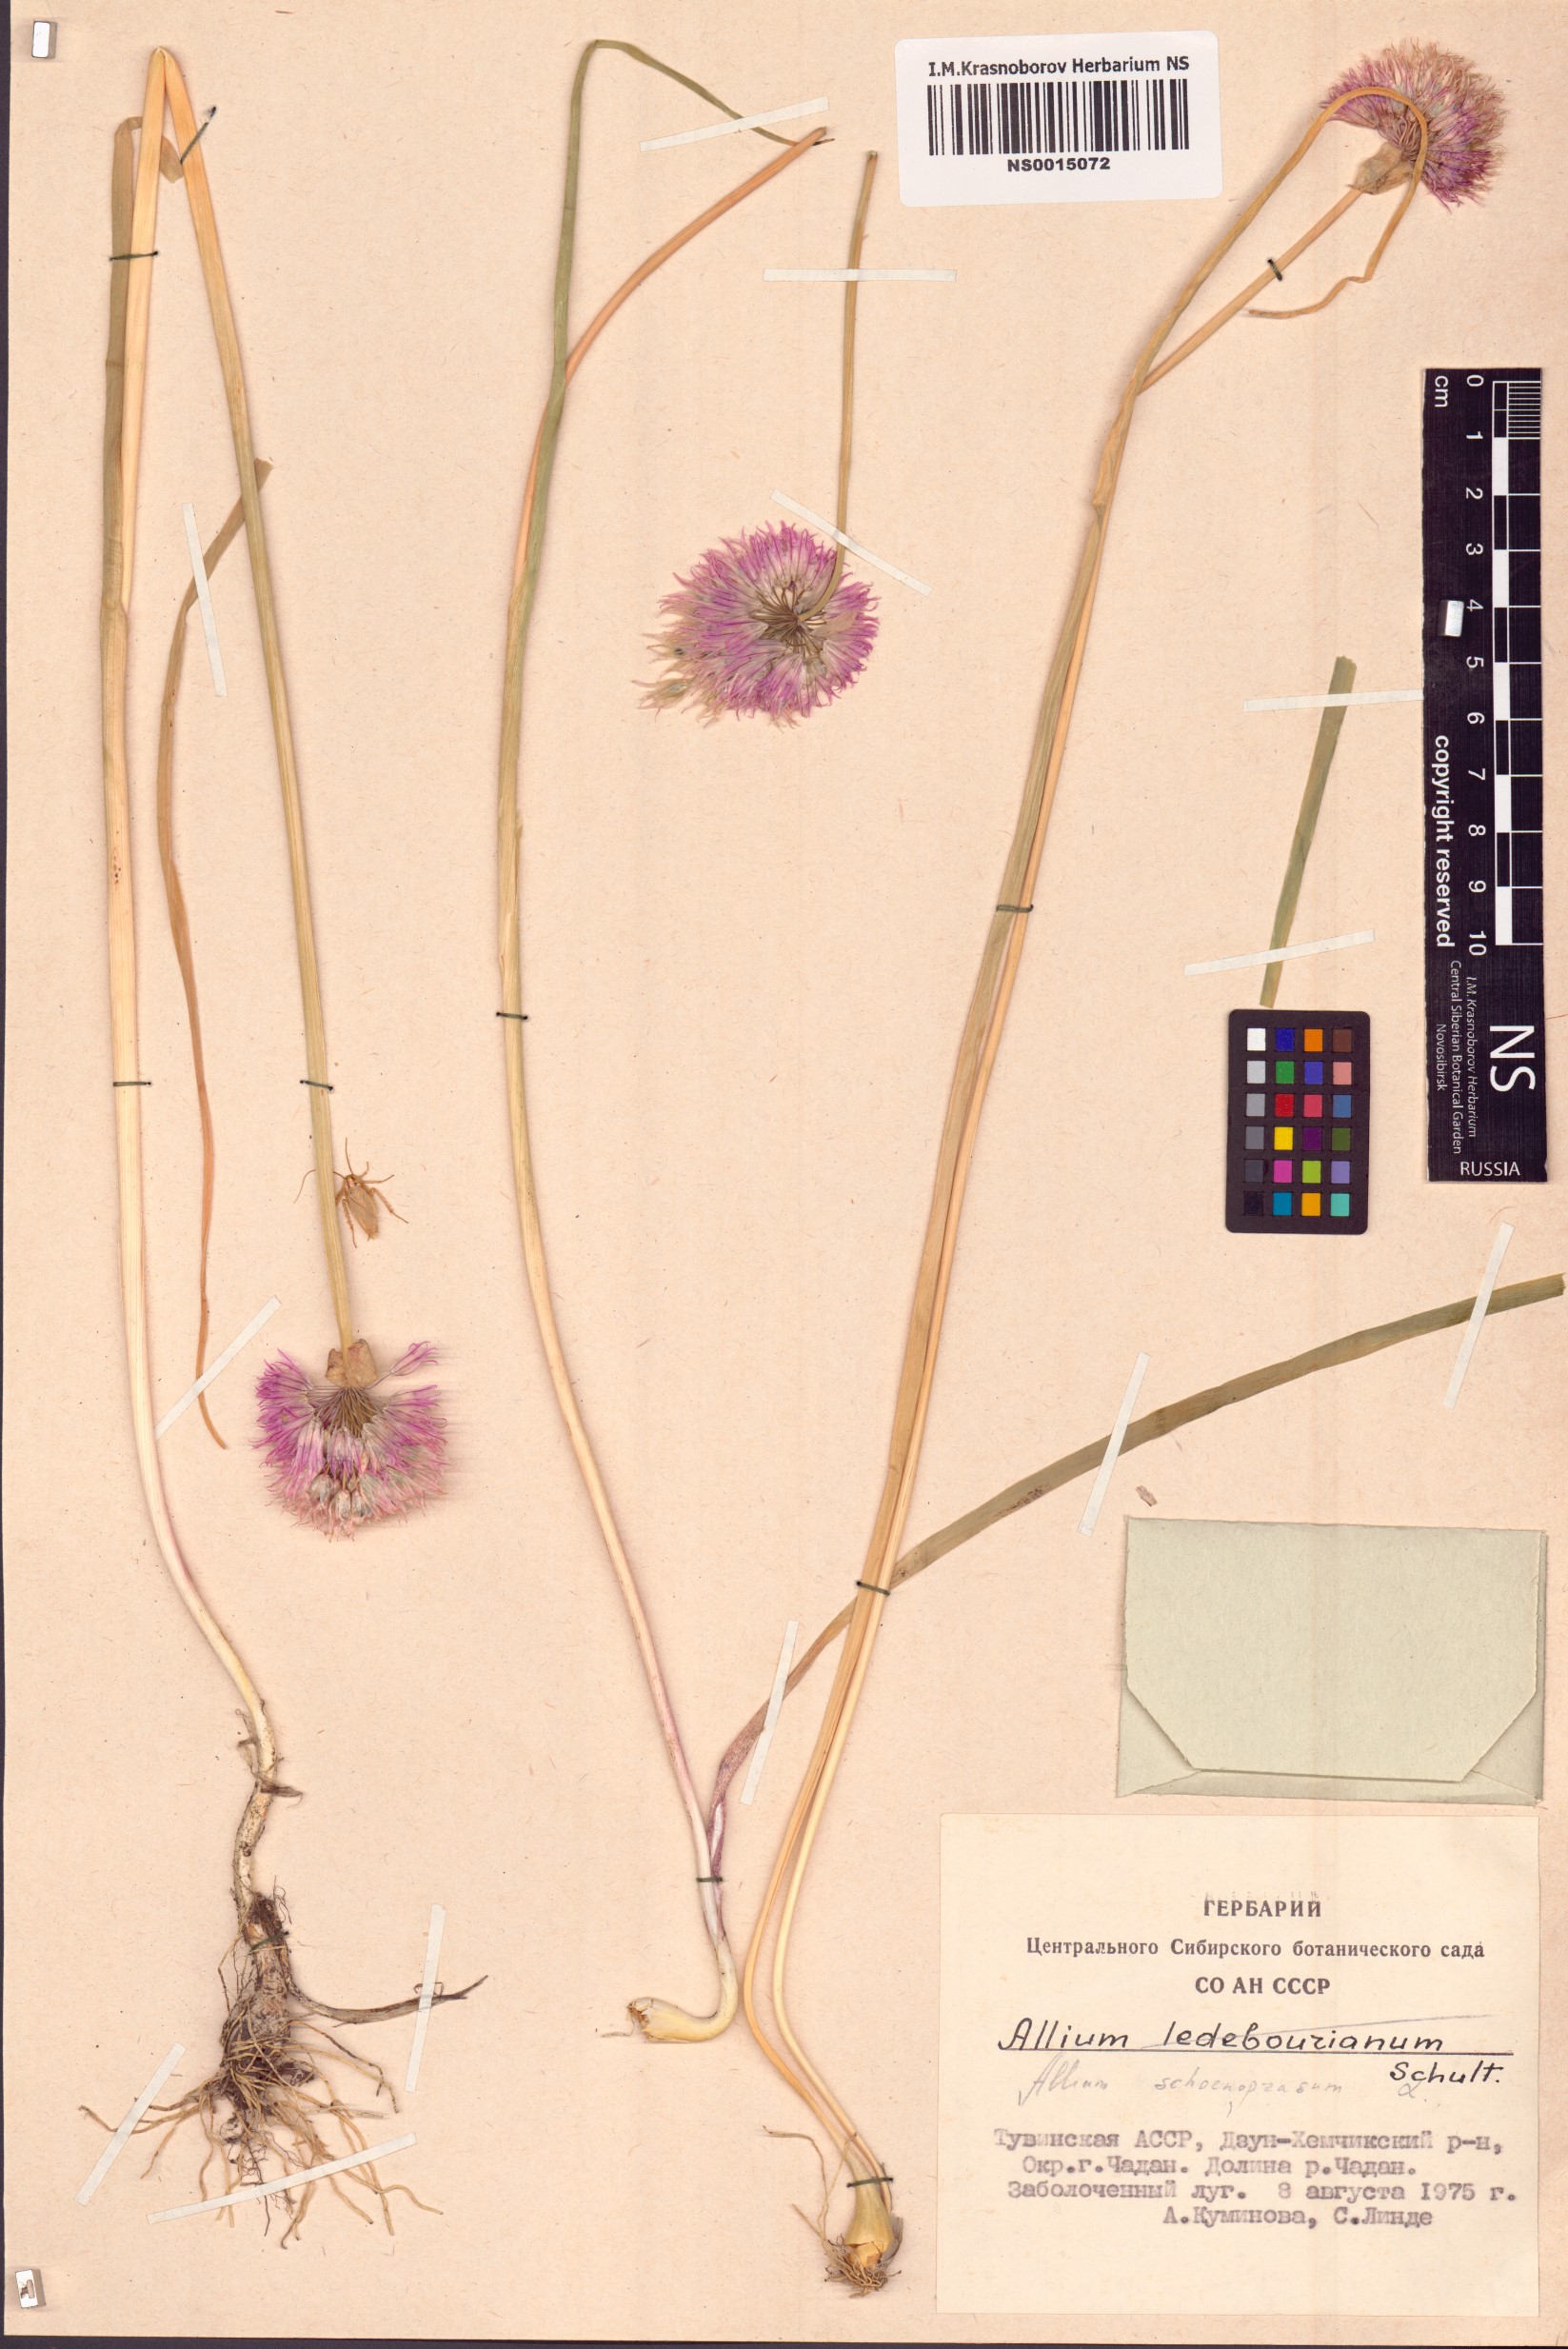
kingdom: Plantae
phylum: Tracheophyta
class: Liliopsida
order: Asparagales
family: Amaryllidaceae
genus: Allium
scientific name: Allium schoenoprasum
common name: Chives
